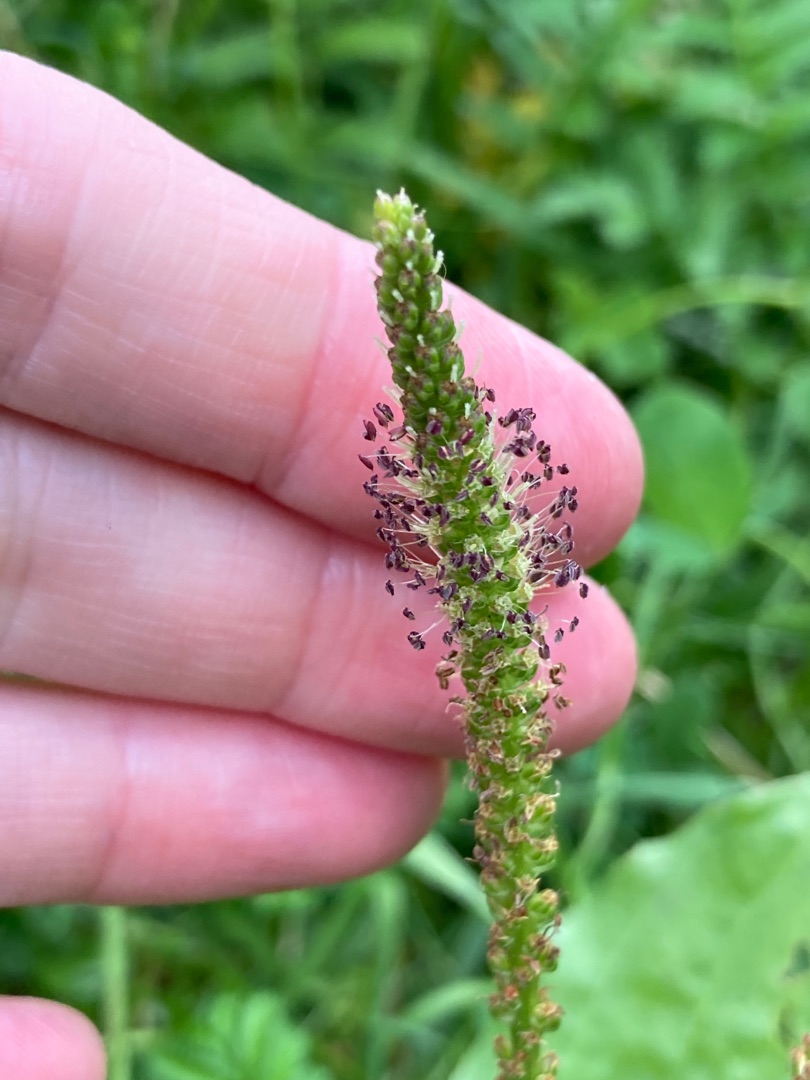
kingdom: Plantae
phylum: Tracheophyta
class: Magnoliopsida
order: Lamiales
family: Plantaginaceae
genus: Plantago
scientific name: Plantago major
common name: Glat vejbred
